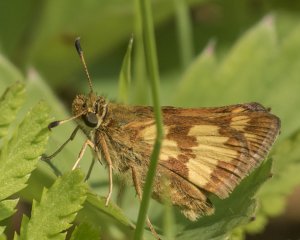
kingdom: Animalia
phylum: Arthropoda
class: Insecta
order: Lepidoptera
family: Hesperiidae
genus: Polites
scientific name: Polites coras
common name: Peck's Skipper
